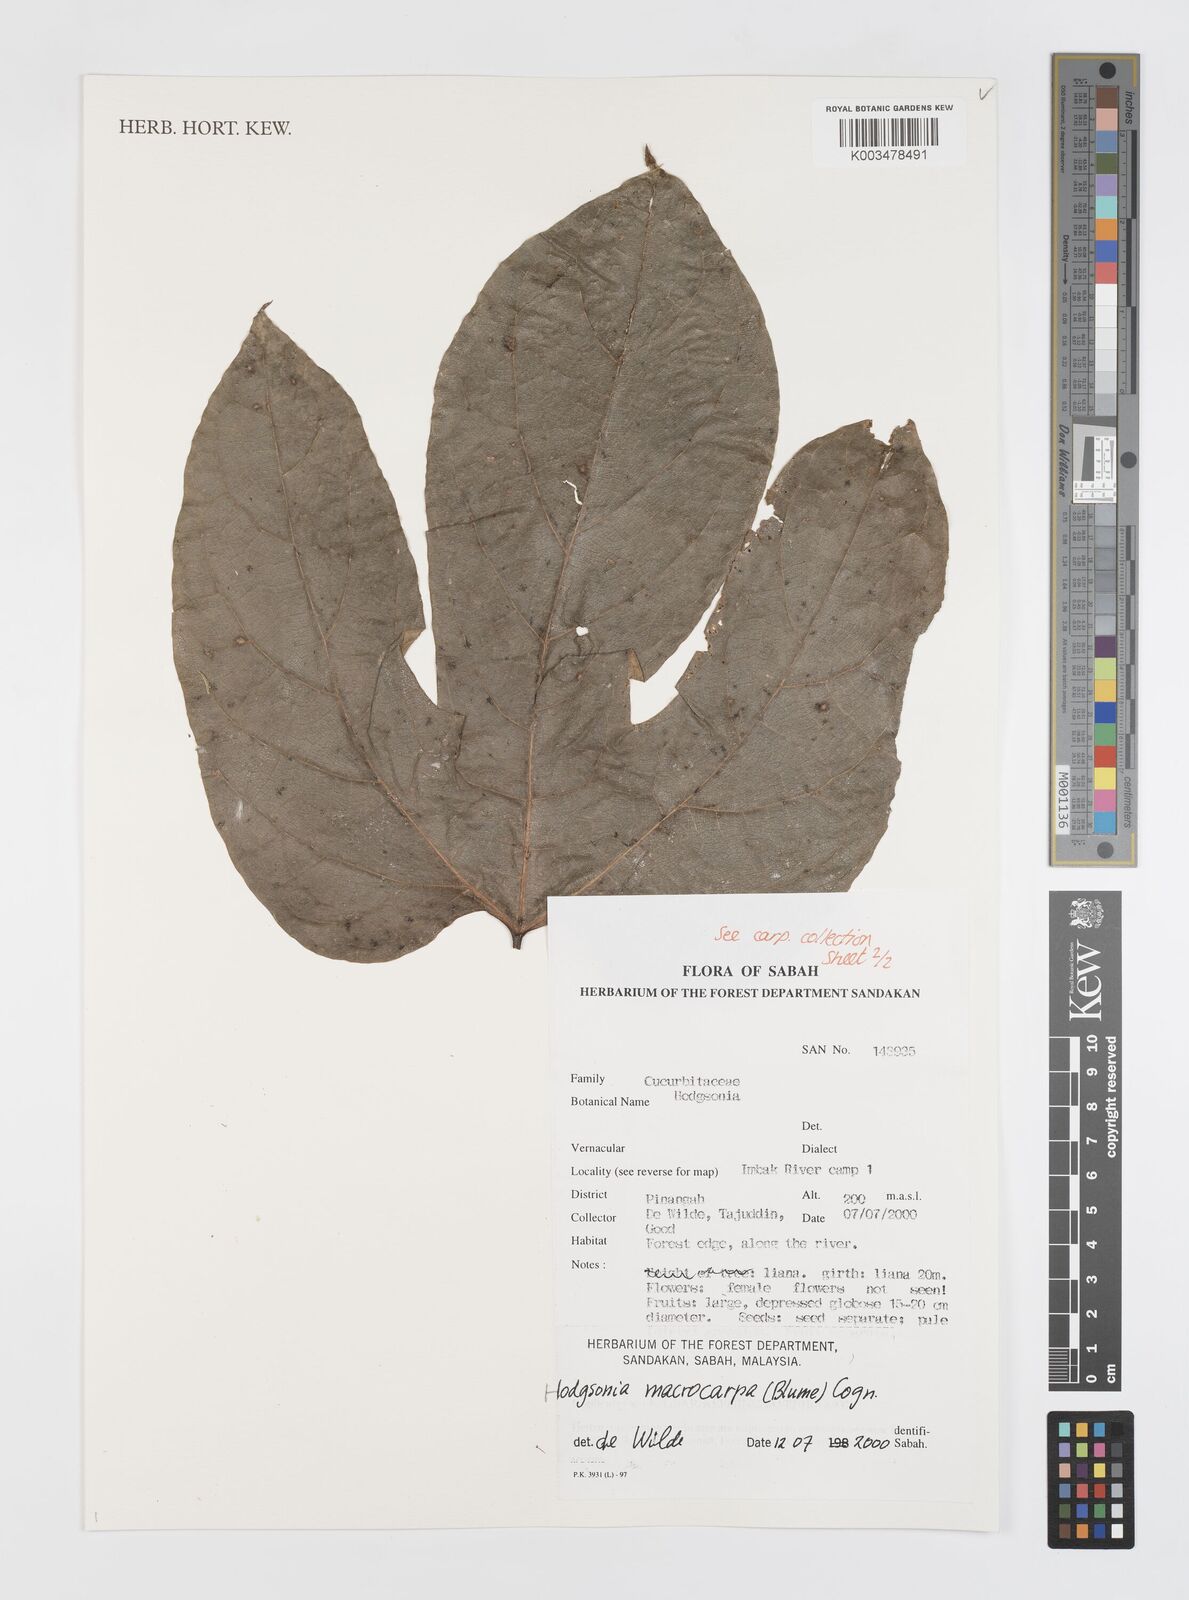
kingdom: Plantae
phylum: Tracheophyta
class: Magnoliopsida
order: Cucurbitales
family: Cucurbitaceae
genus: Hodgsonia
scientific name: Hodgsonia macrocarpa
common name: Chinese lardfruit
